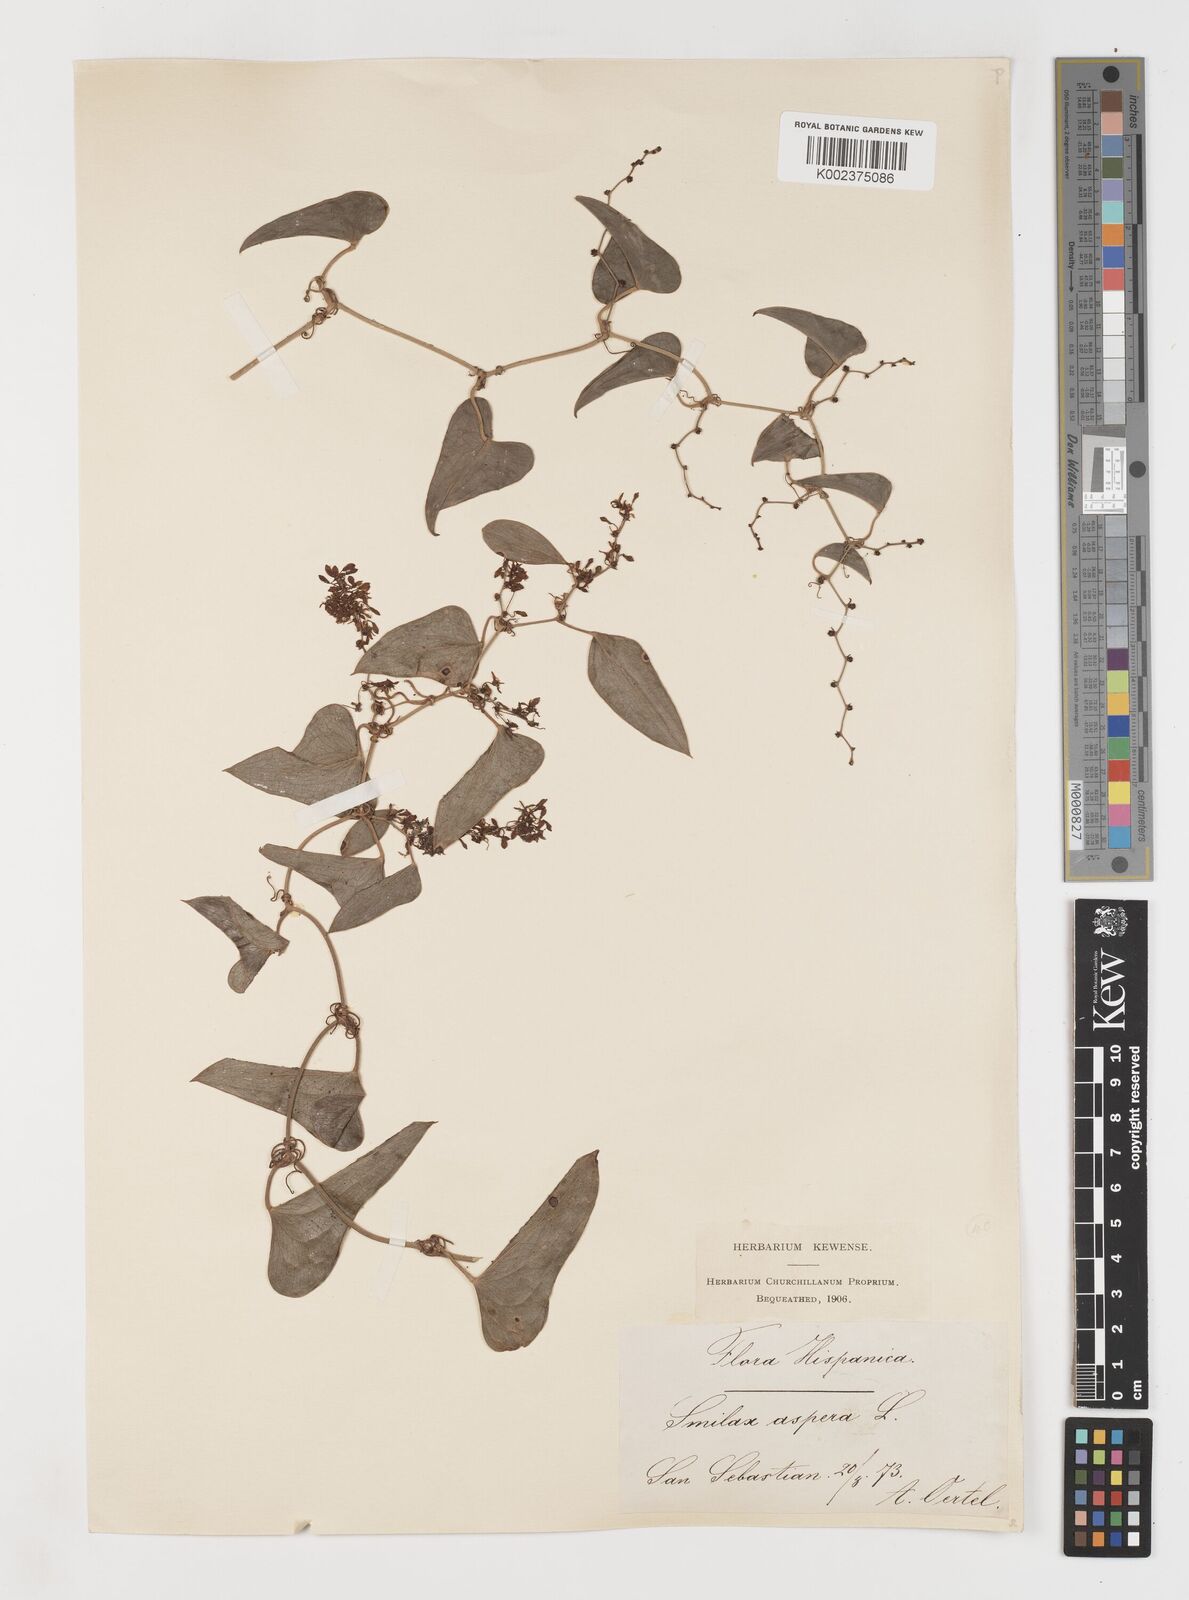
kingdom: Plantae
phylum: Tracheophyta
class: Liliopsida
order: Liliales
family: Smilacaceae
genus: Smilax
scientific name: Smilax aspera
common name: Common smilax
